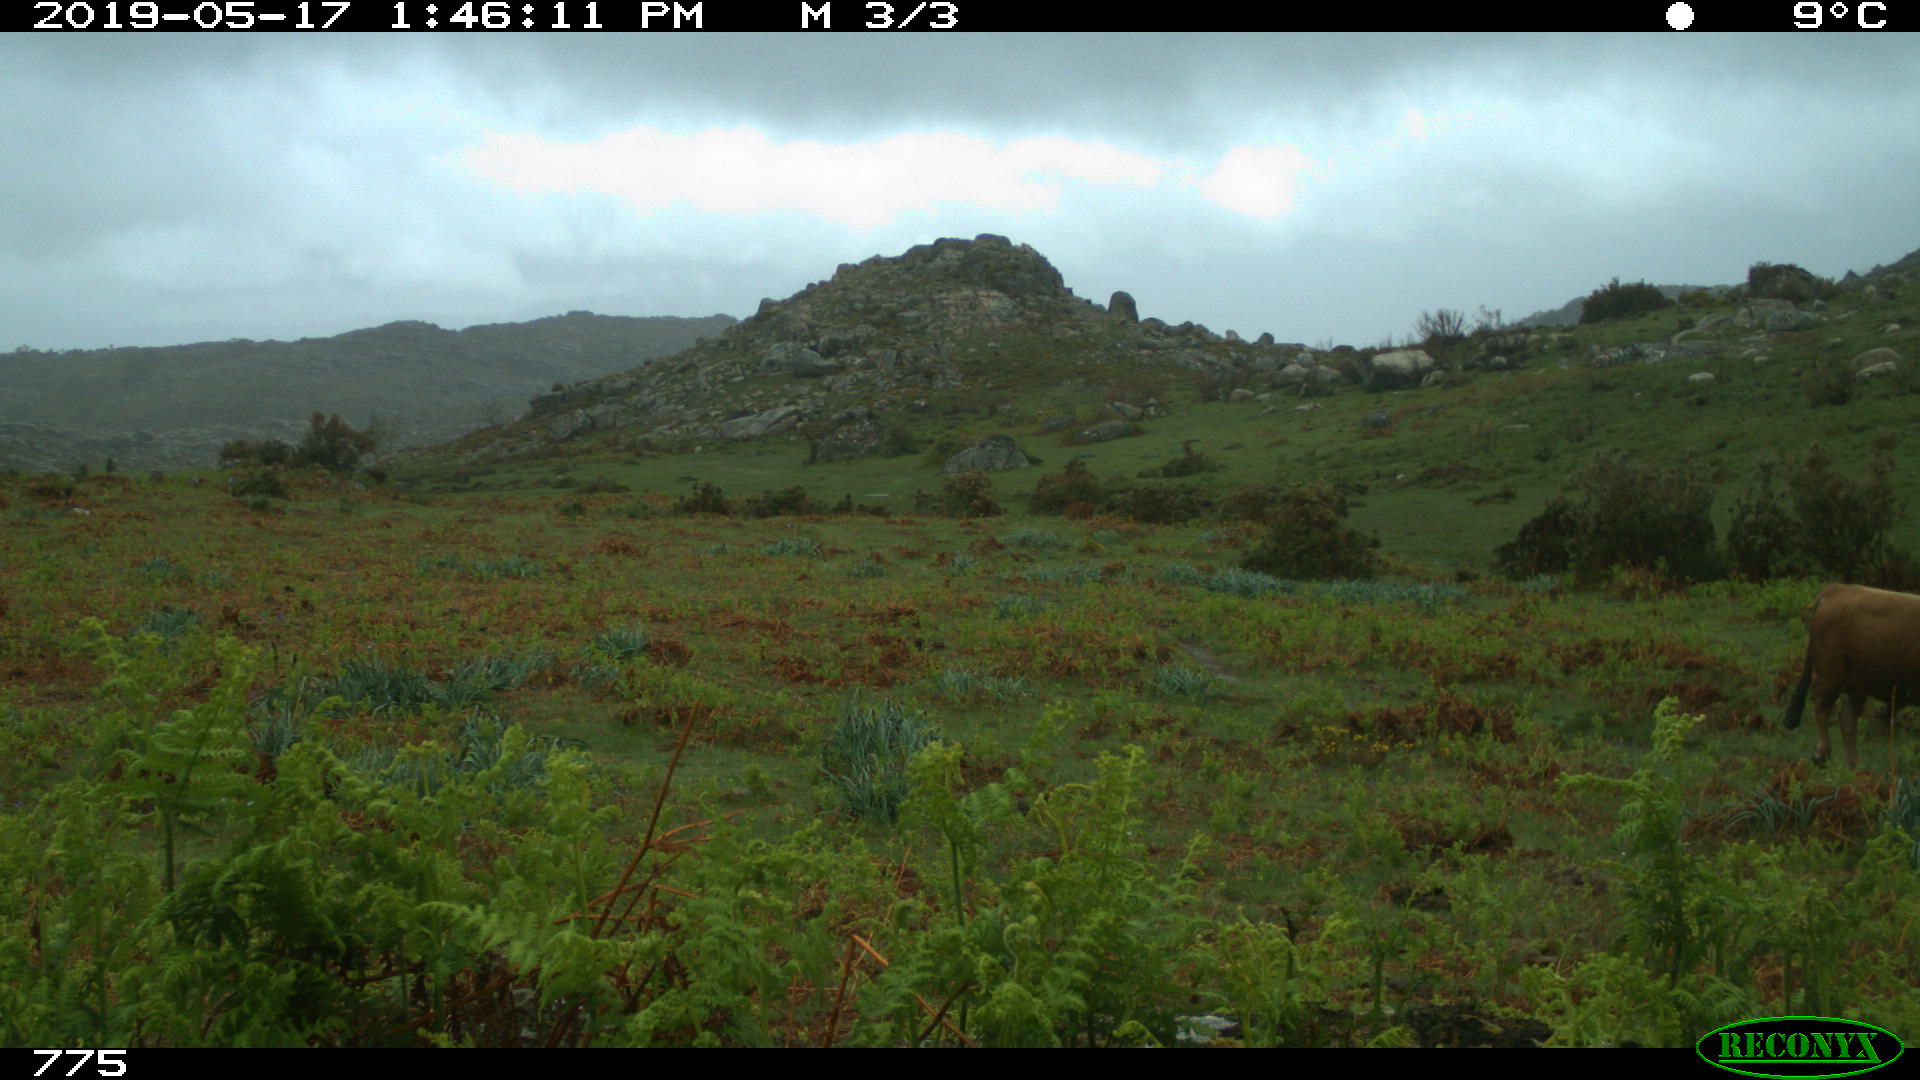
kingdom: Animalia
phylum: Chordata
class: Mammalia
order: Artiodactyla
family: Bovidae
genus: Bos
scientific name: Bos taurus
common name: Domesticated cattle
